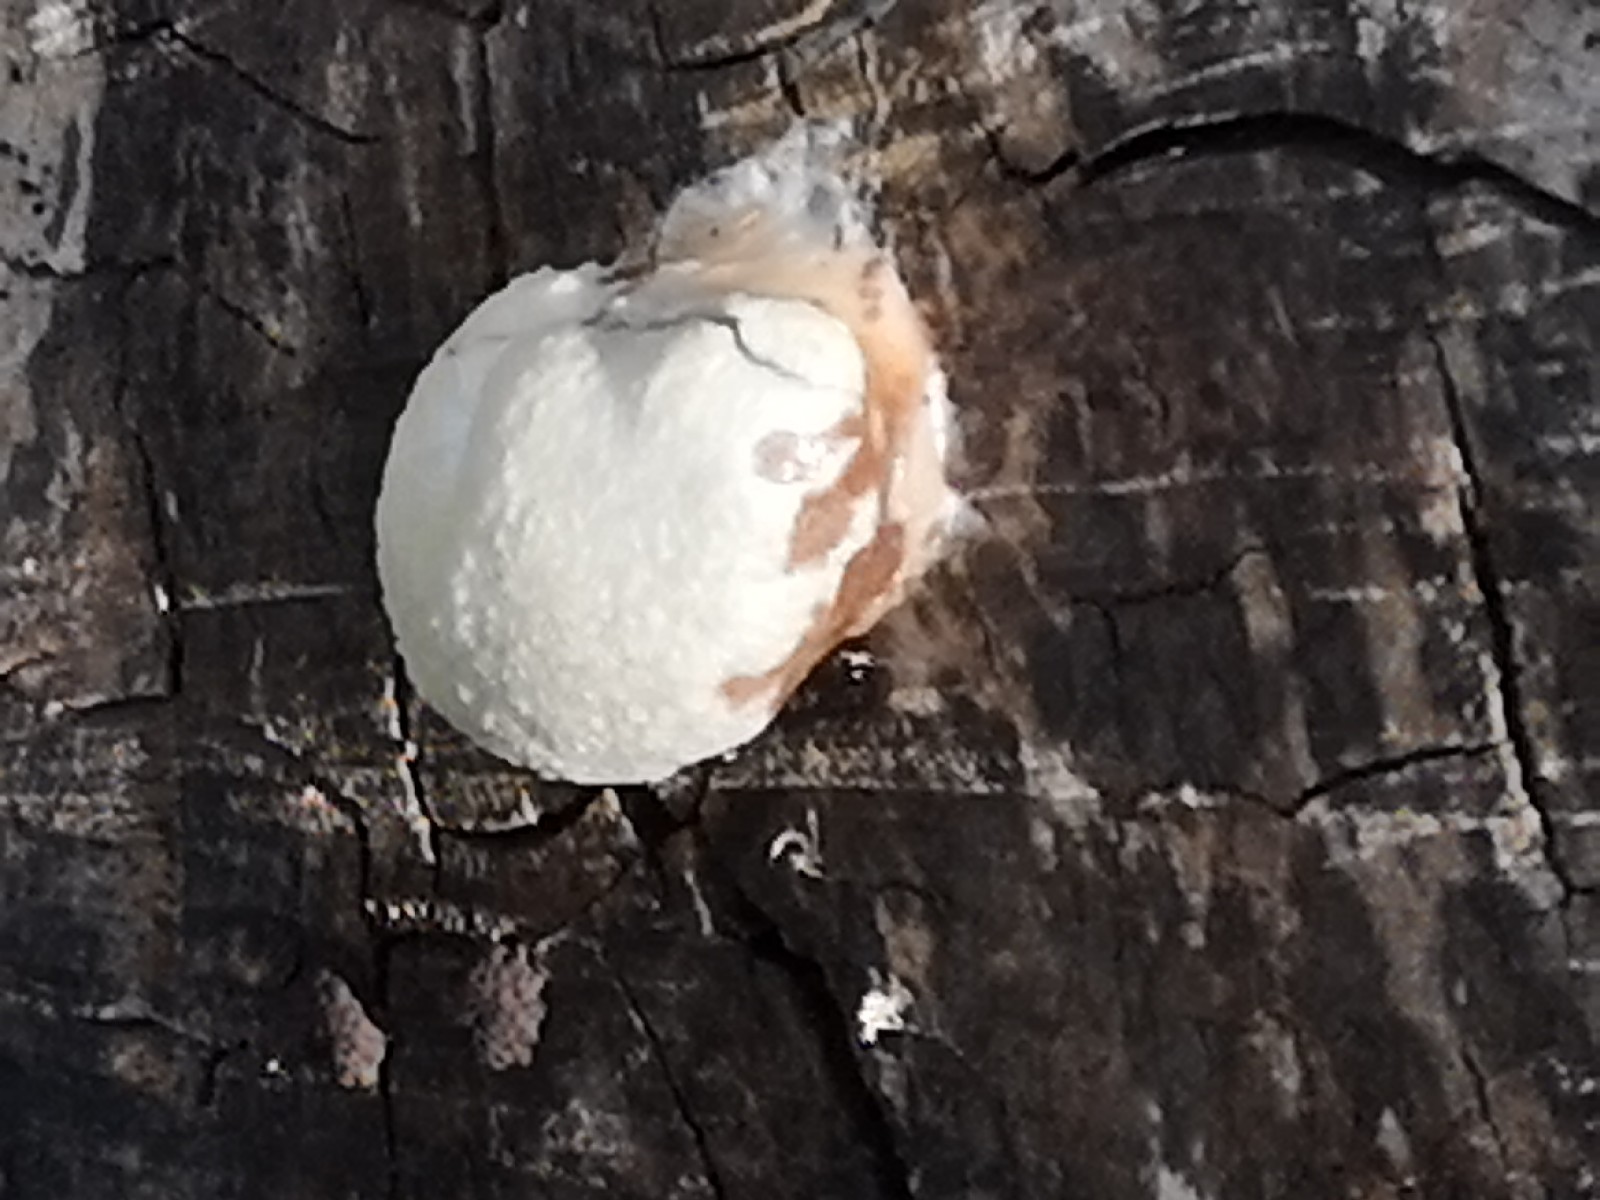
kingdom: Protozoa
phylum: Mycetozoa
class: Myxomycetes
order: Cribrariales
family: Tubiferaceae
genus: Reticularia
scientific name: Reticularia lycoperdon
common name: skinnende støvpude
